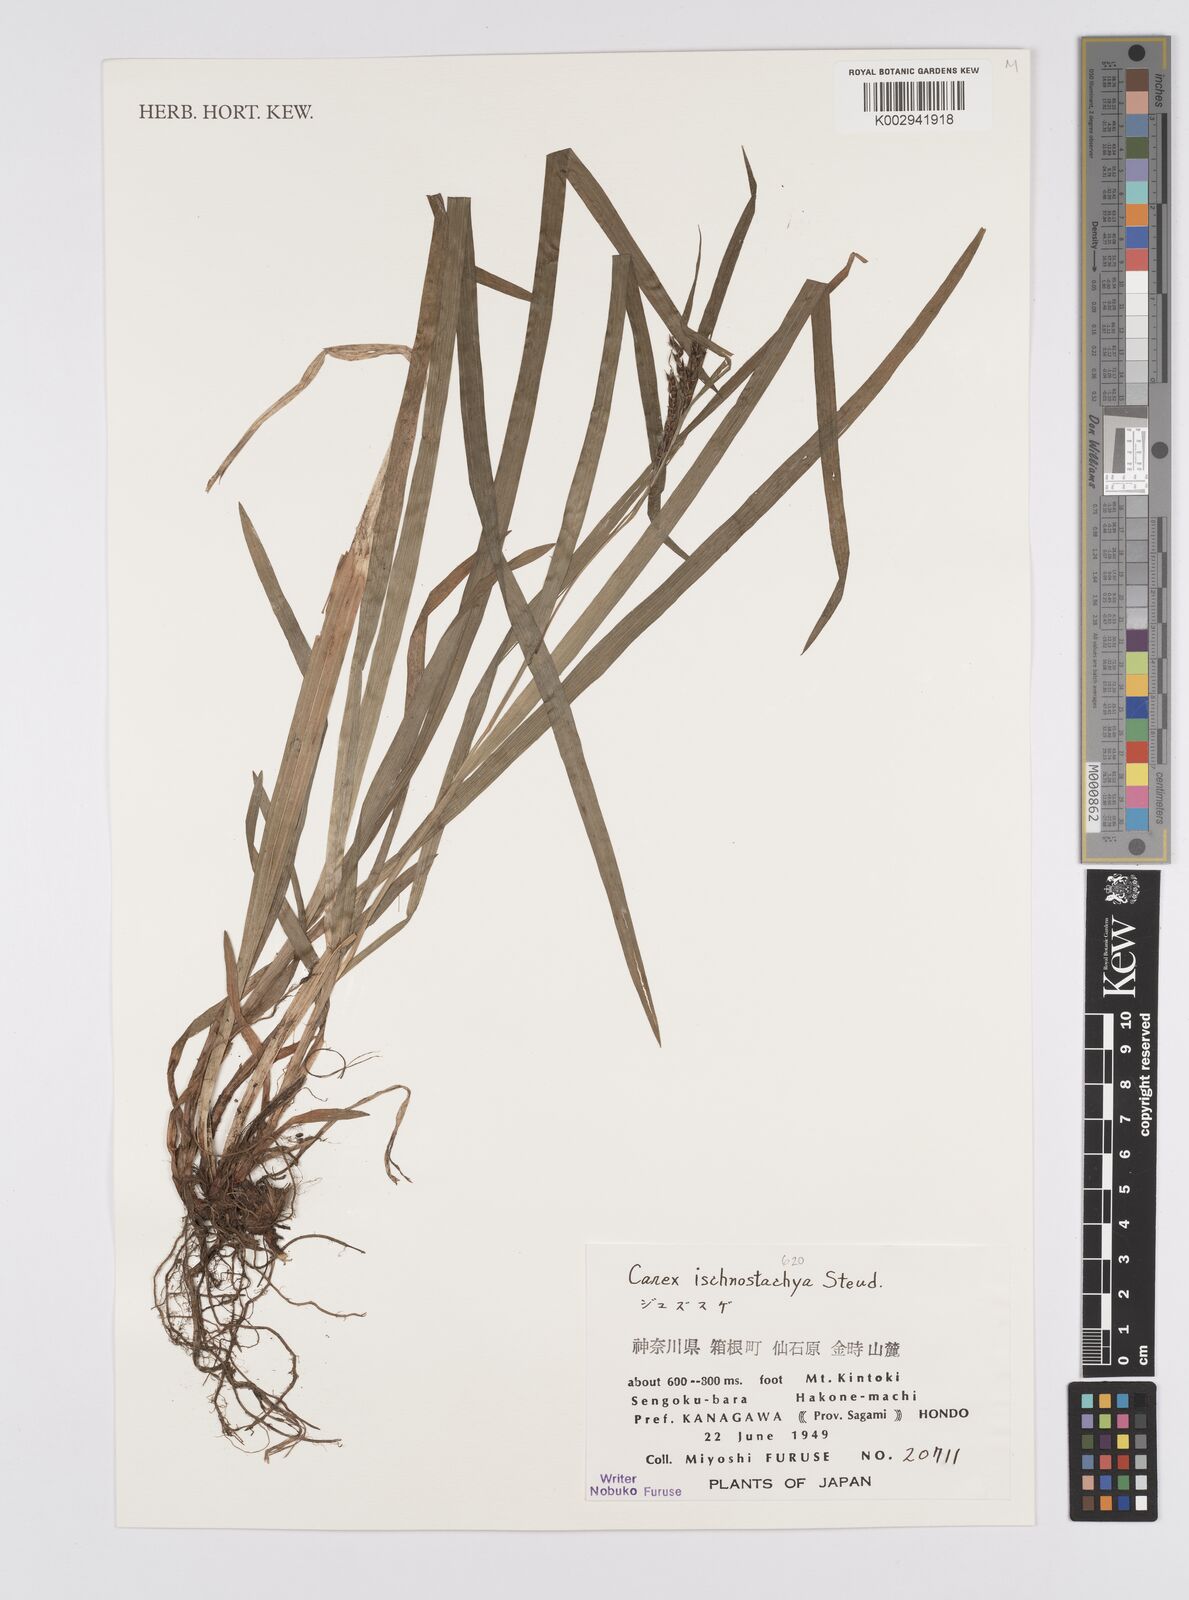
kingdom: Plantae
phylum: Tracheophyta
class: Liliopsida
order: Poales
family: Cyperaceae
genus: Carex
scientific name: Carex ischnostachya
